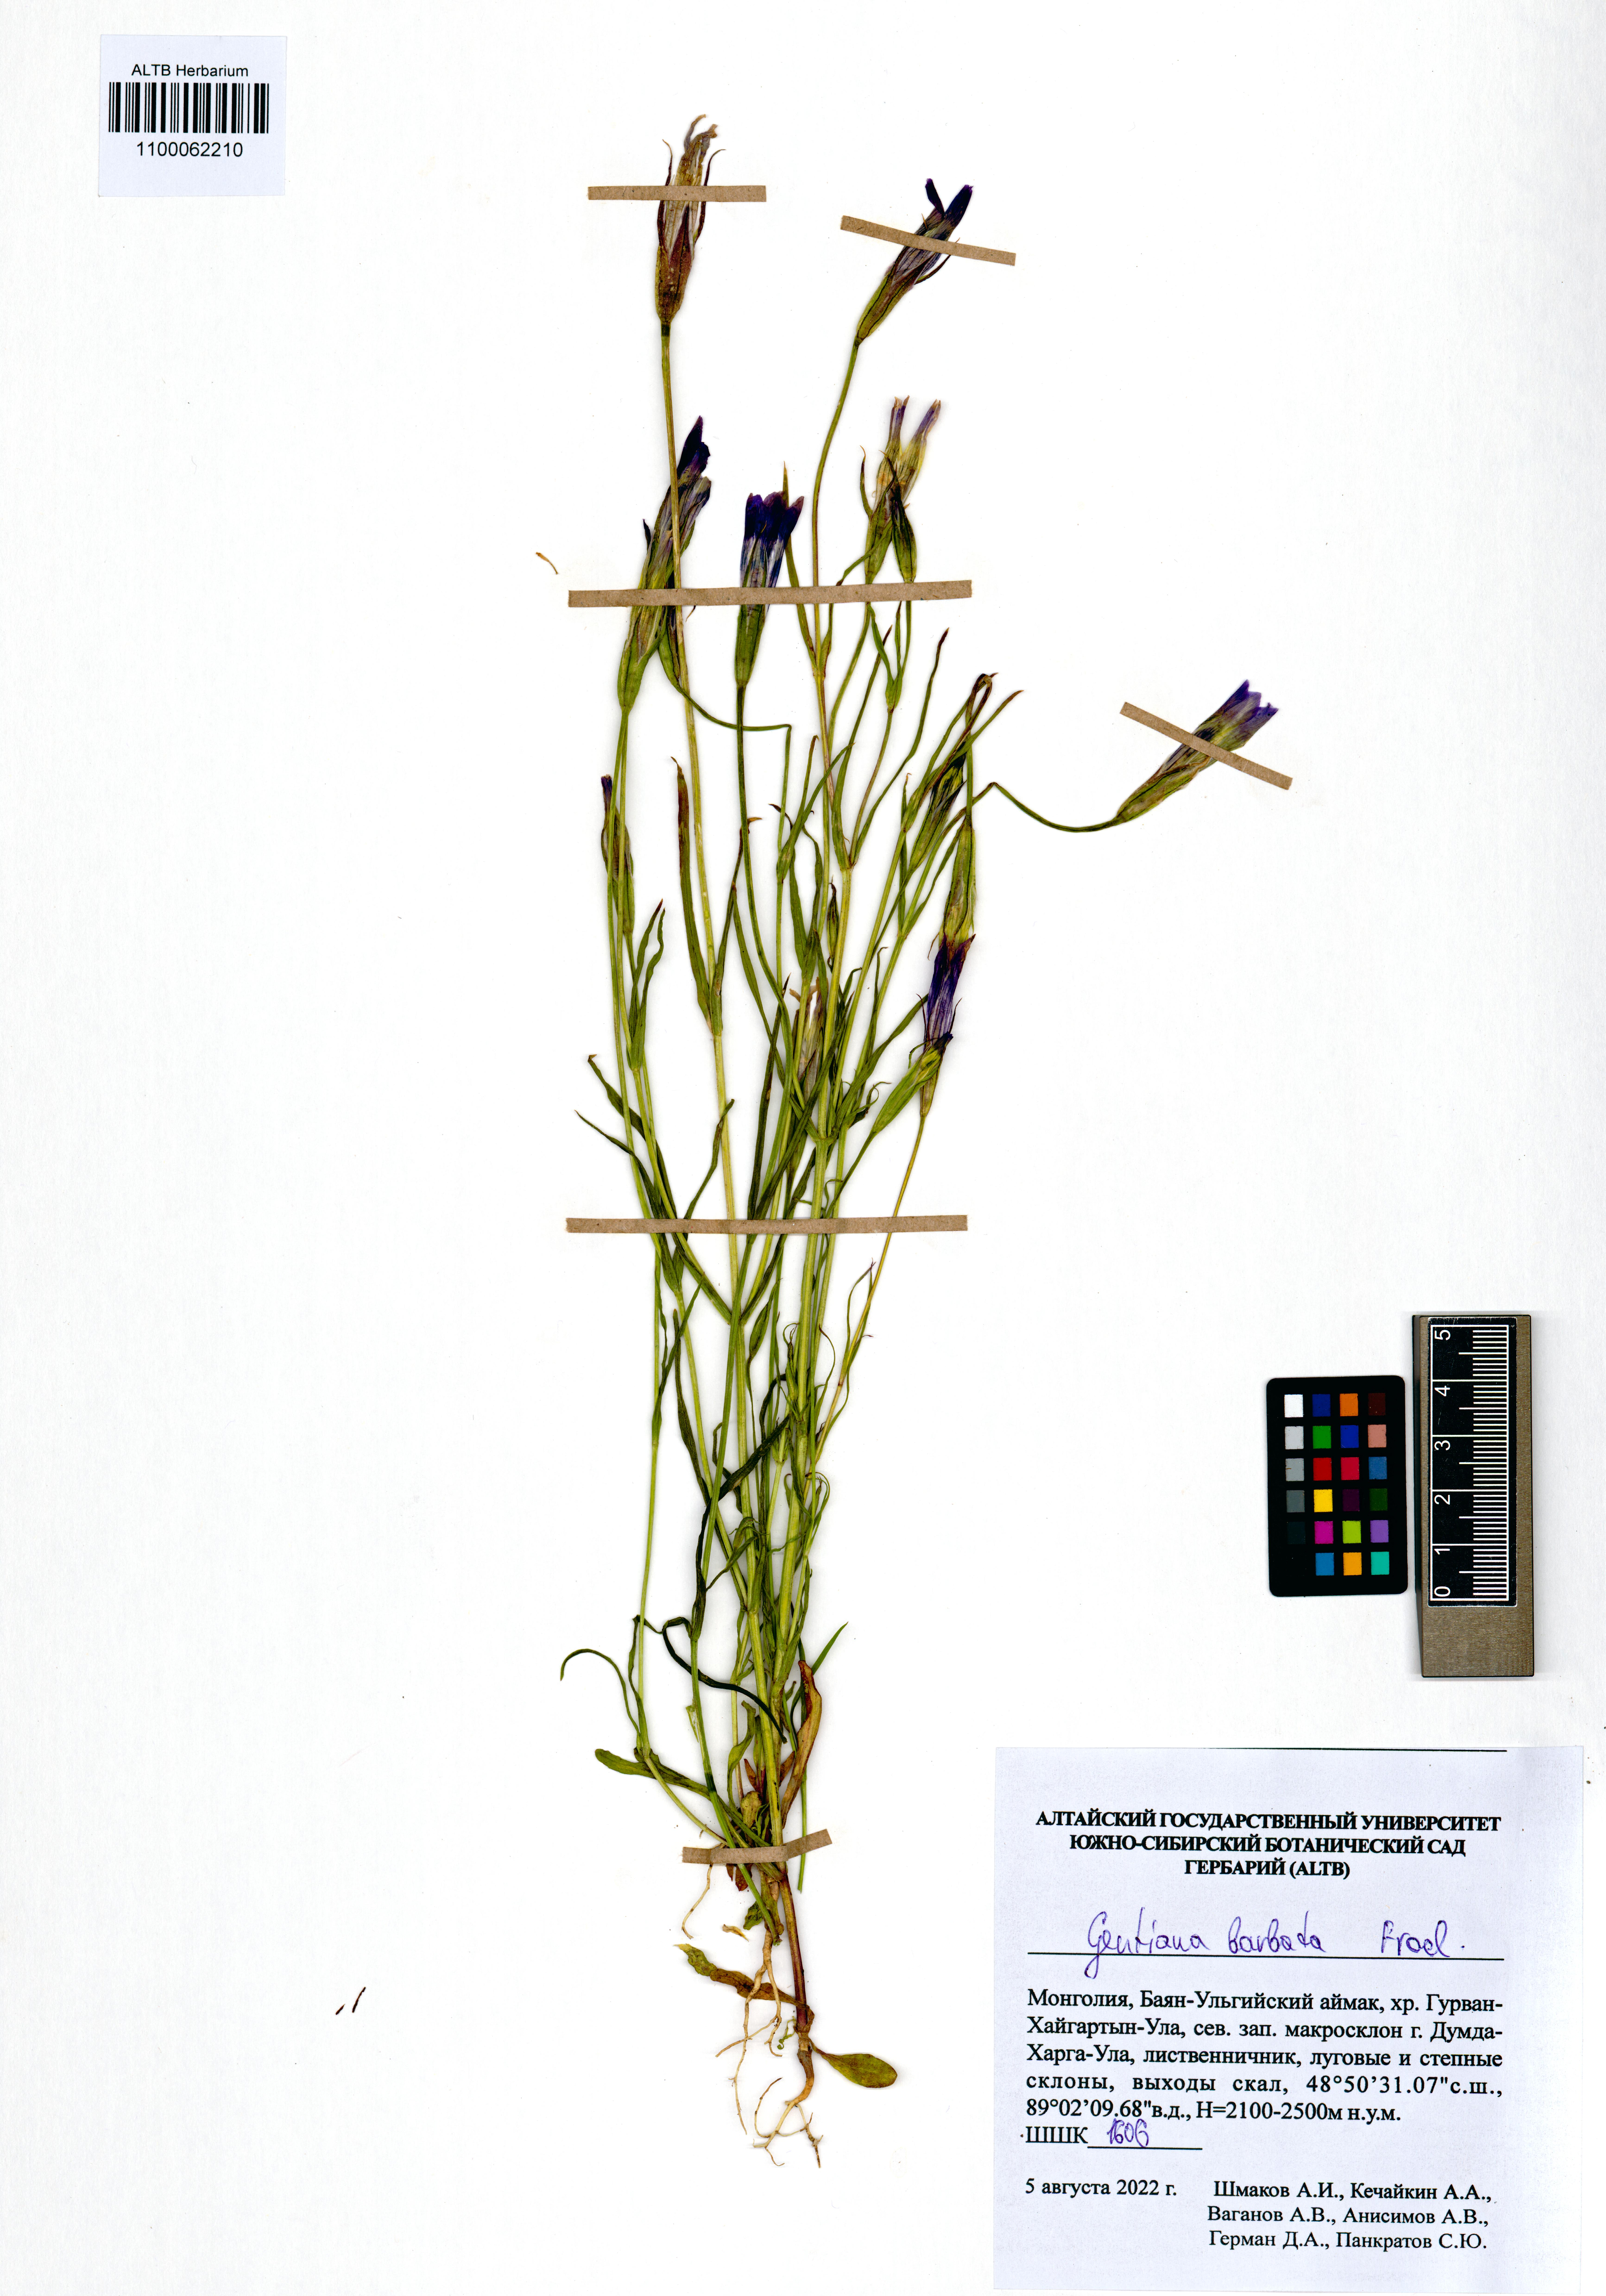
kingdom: Plantae
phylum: Tracheophyta
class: Magnoliopsida
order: Gentianales
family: Gentianaceae
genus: Gentianopsis
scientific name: Gentianopsis barbata
